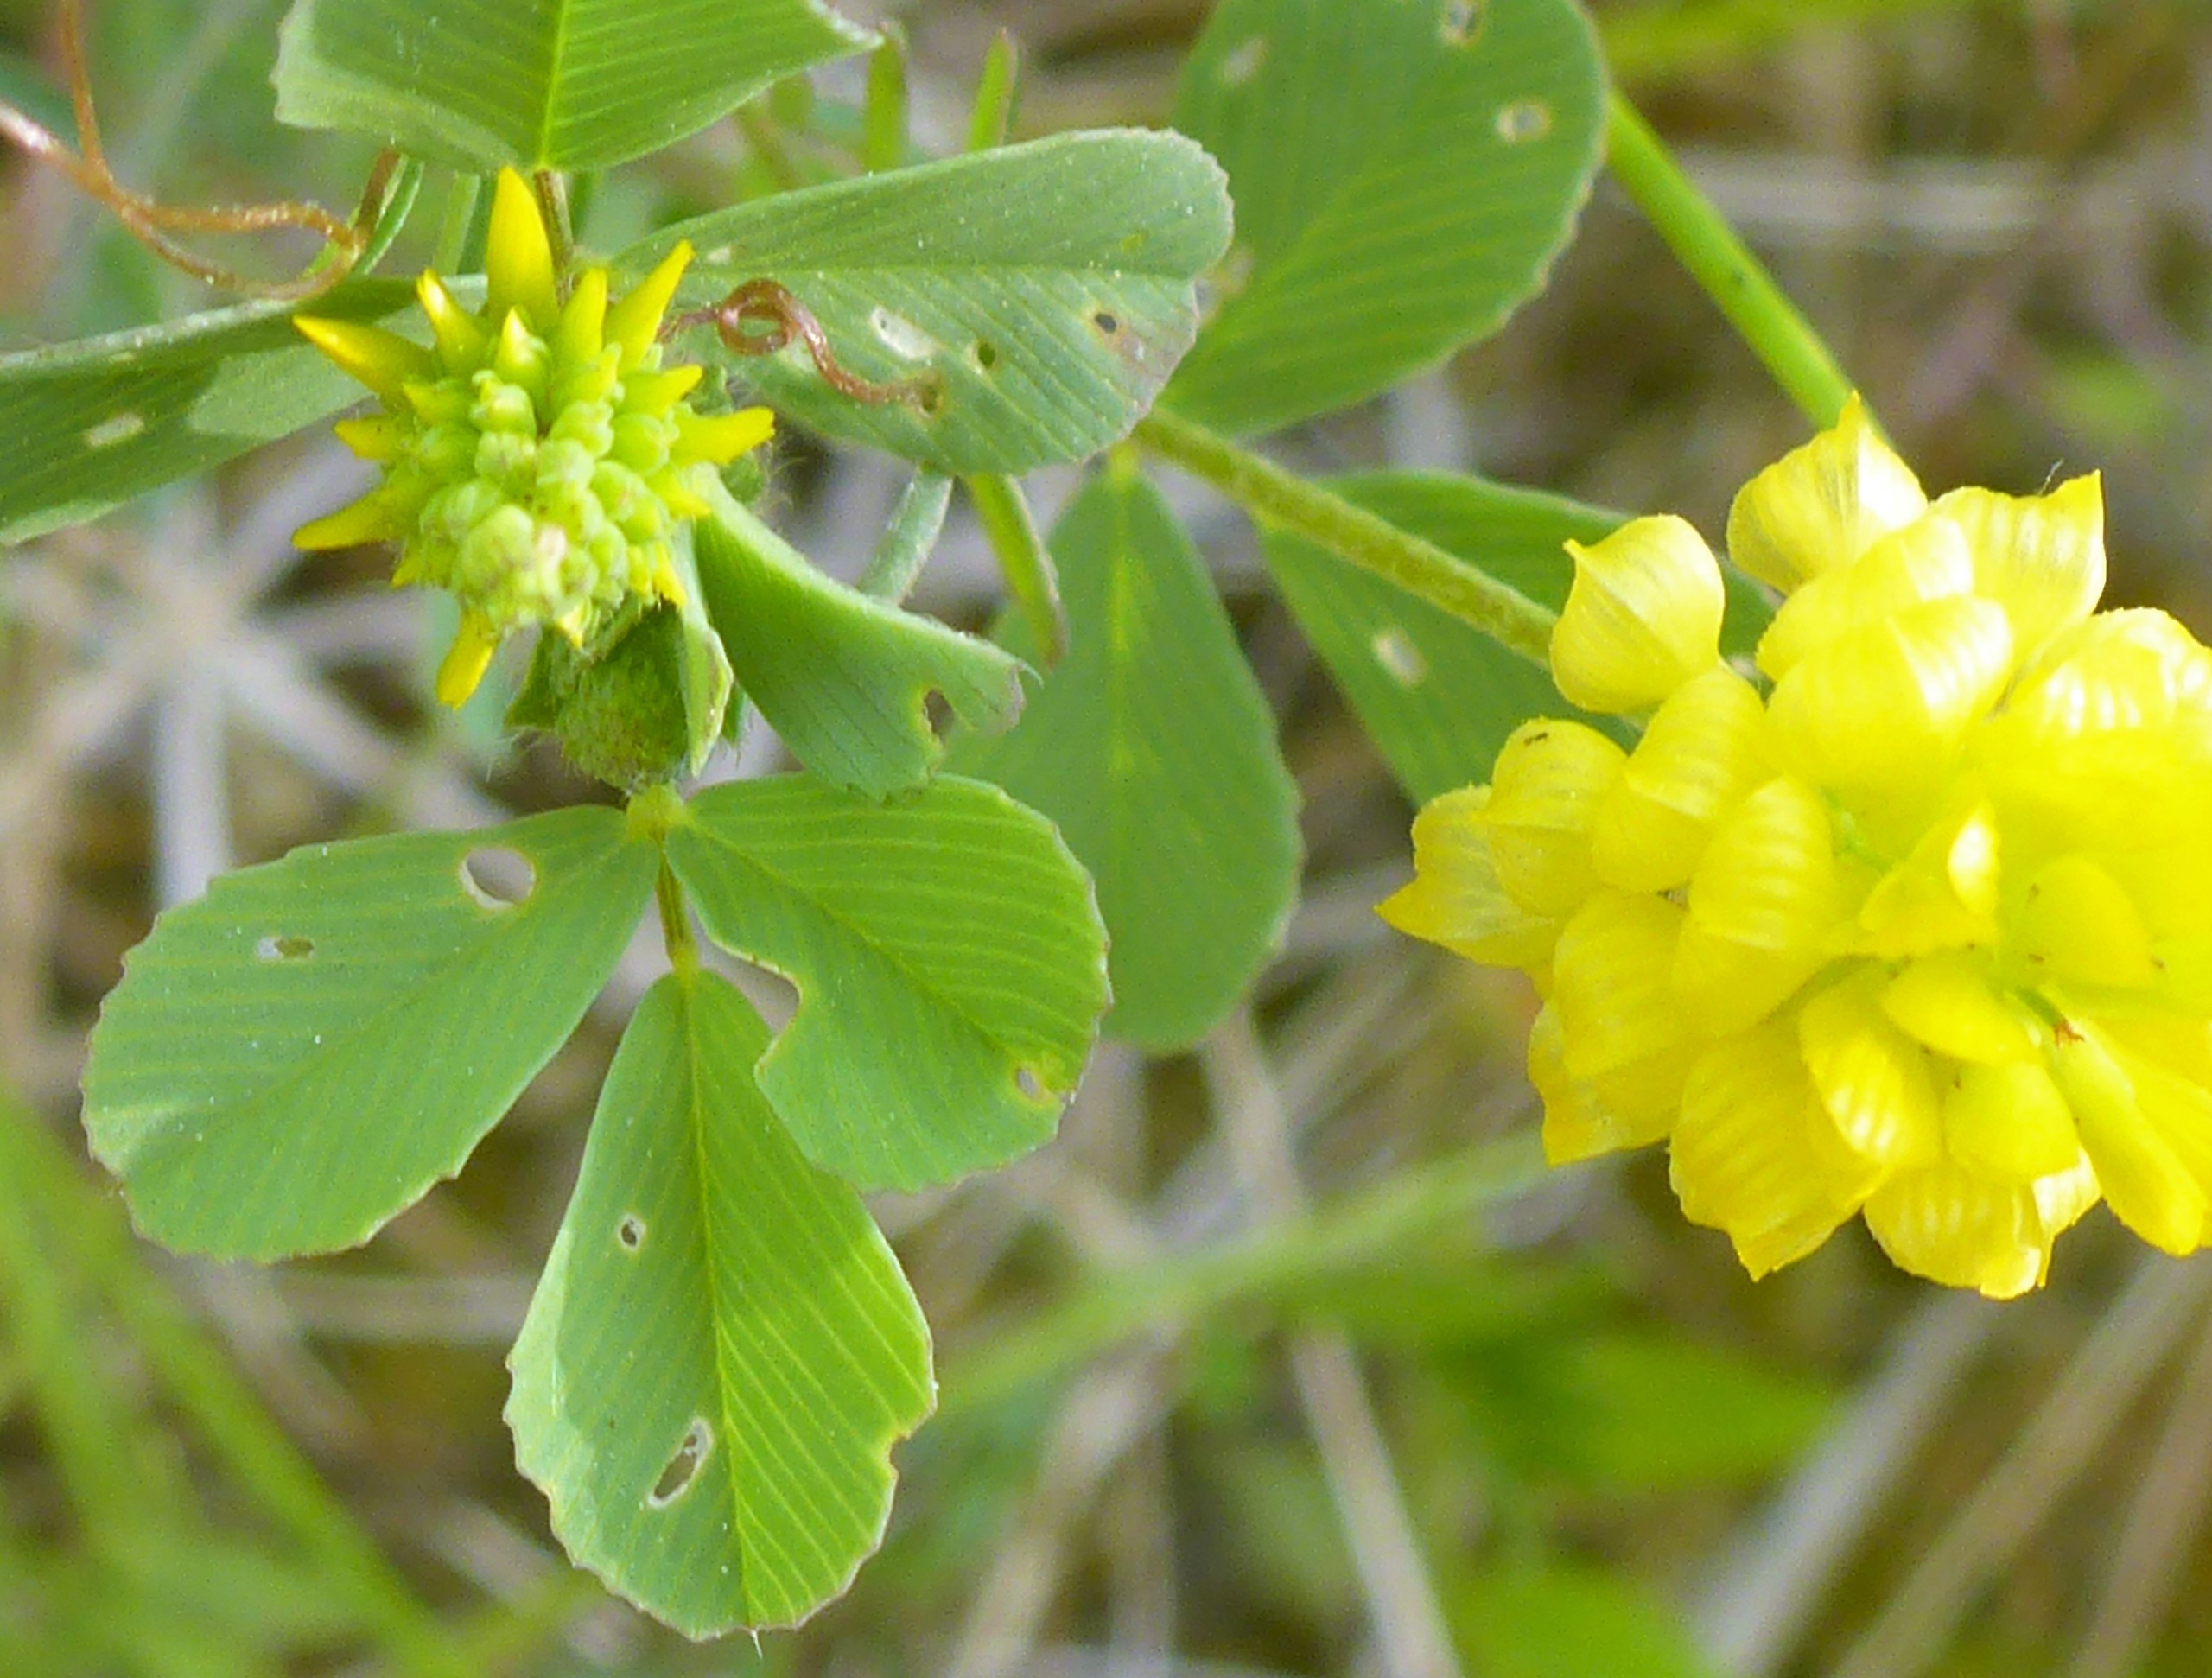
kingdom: Plantae
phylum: Tracheophyta
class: Magnoliopsida
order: Fabales
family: Fabaceae
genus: Trifolium
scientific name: Trifolium campestre
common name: Gul kløver
